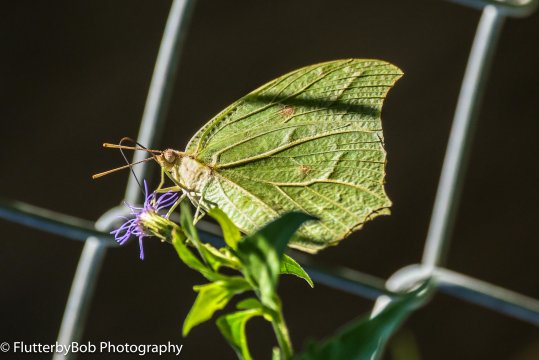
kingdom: Animalia
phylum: Arthropoda
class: Insecta
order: Lepidoptera
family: Pieridae
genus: Anteos
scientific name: Anteos clorinde
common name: White Angled-Sulphur
